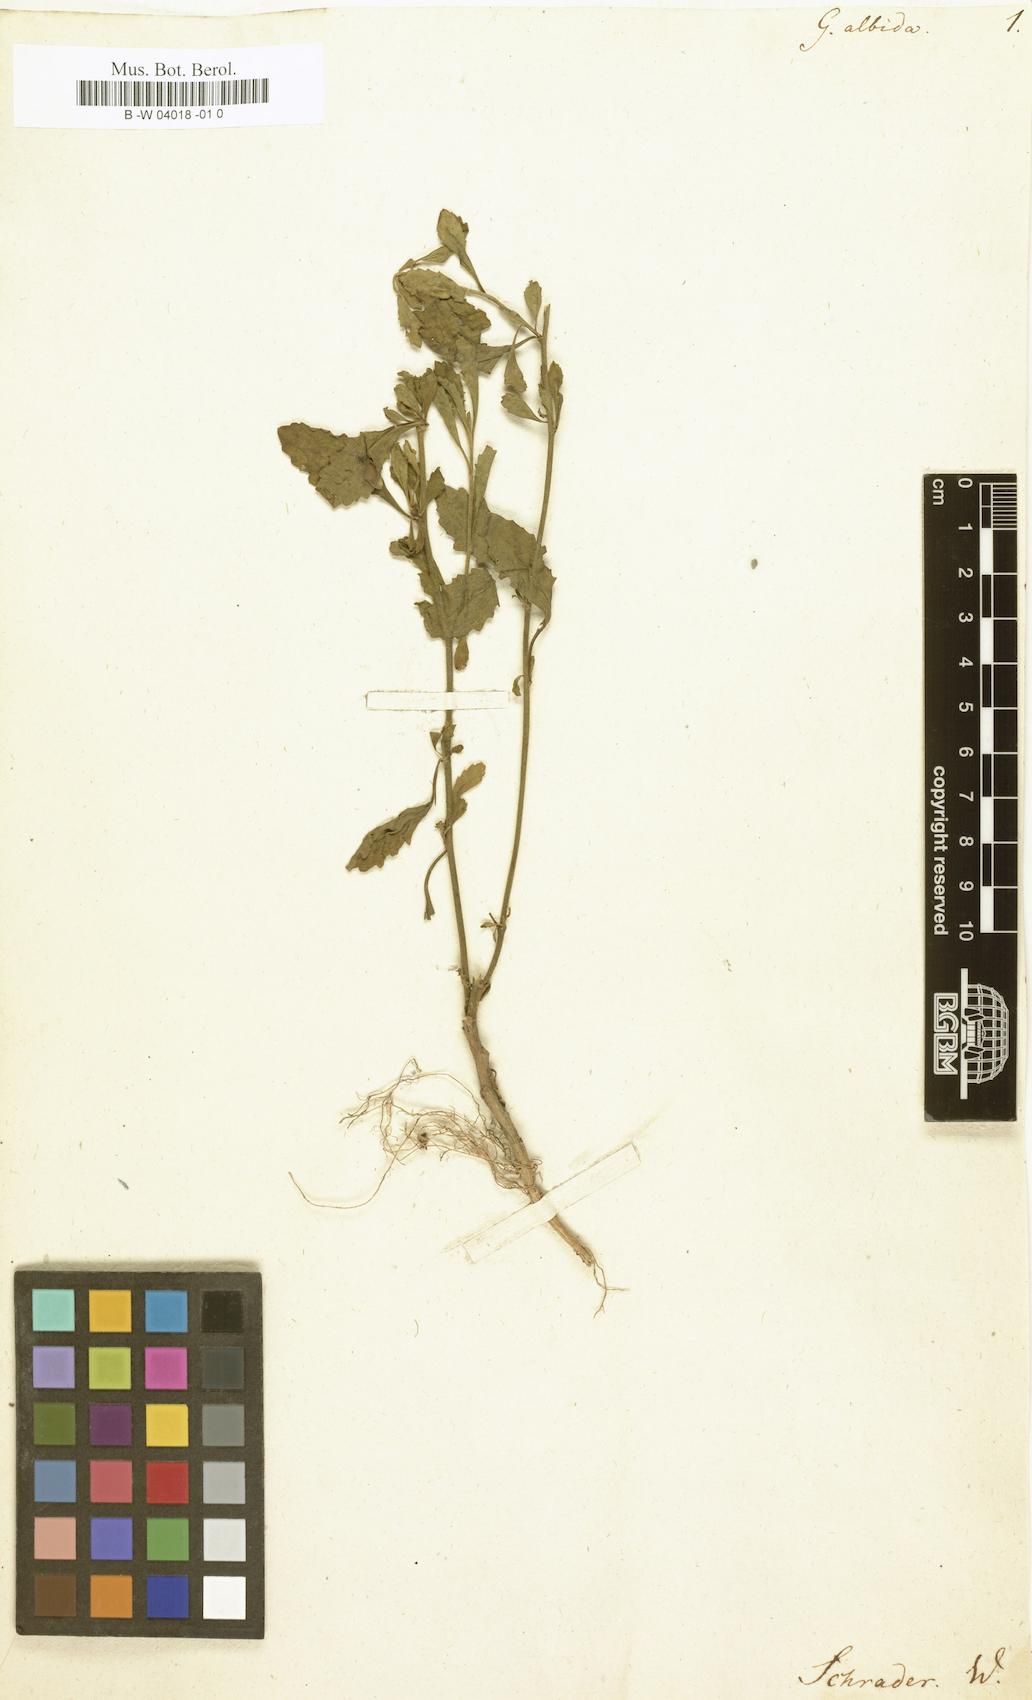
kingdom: Plantae
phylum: Tracheophyta
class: Magnoliopsida
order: Asterales
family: Goodeniaceae
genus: Scaevola
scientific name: Scaevola albida
